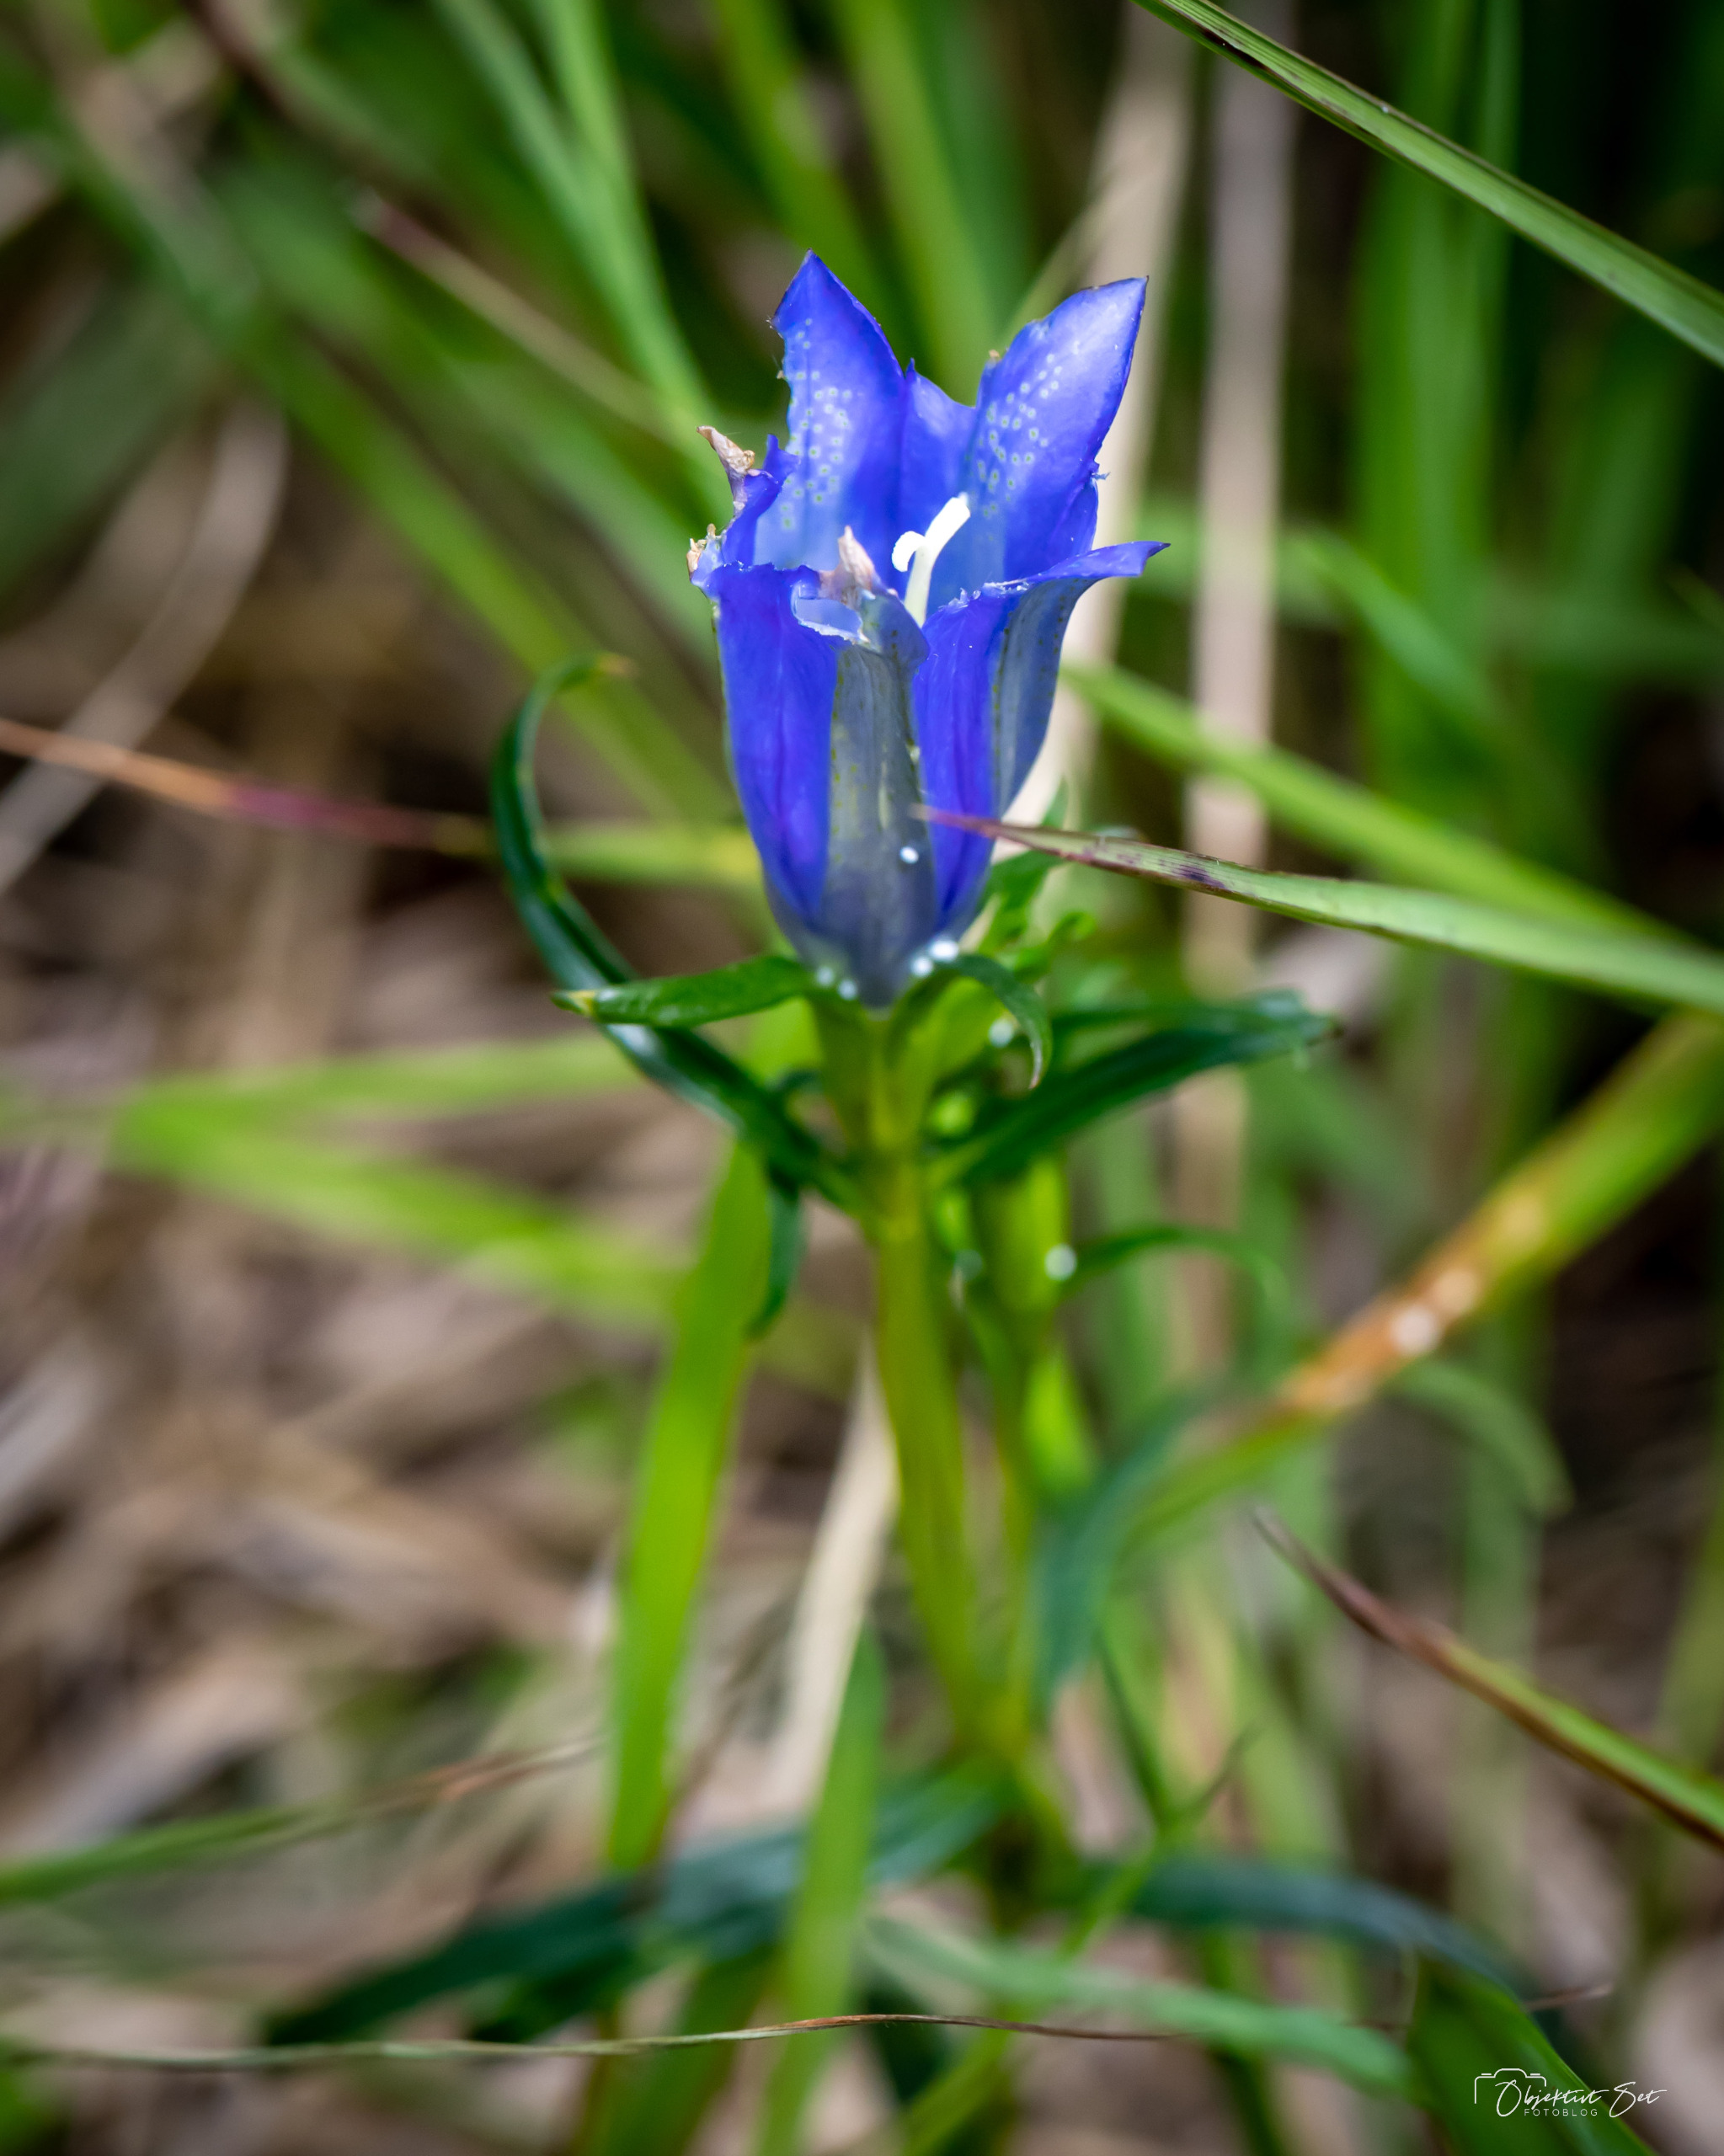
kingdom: Plantae
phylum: Tracheophyta
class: Magnoliopsida
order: Gentianales
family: Gentianaceae
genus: Gentiana
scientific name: Gentiana pneumonanthe
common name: Klokke-ensian
